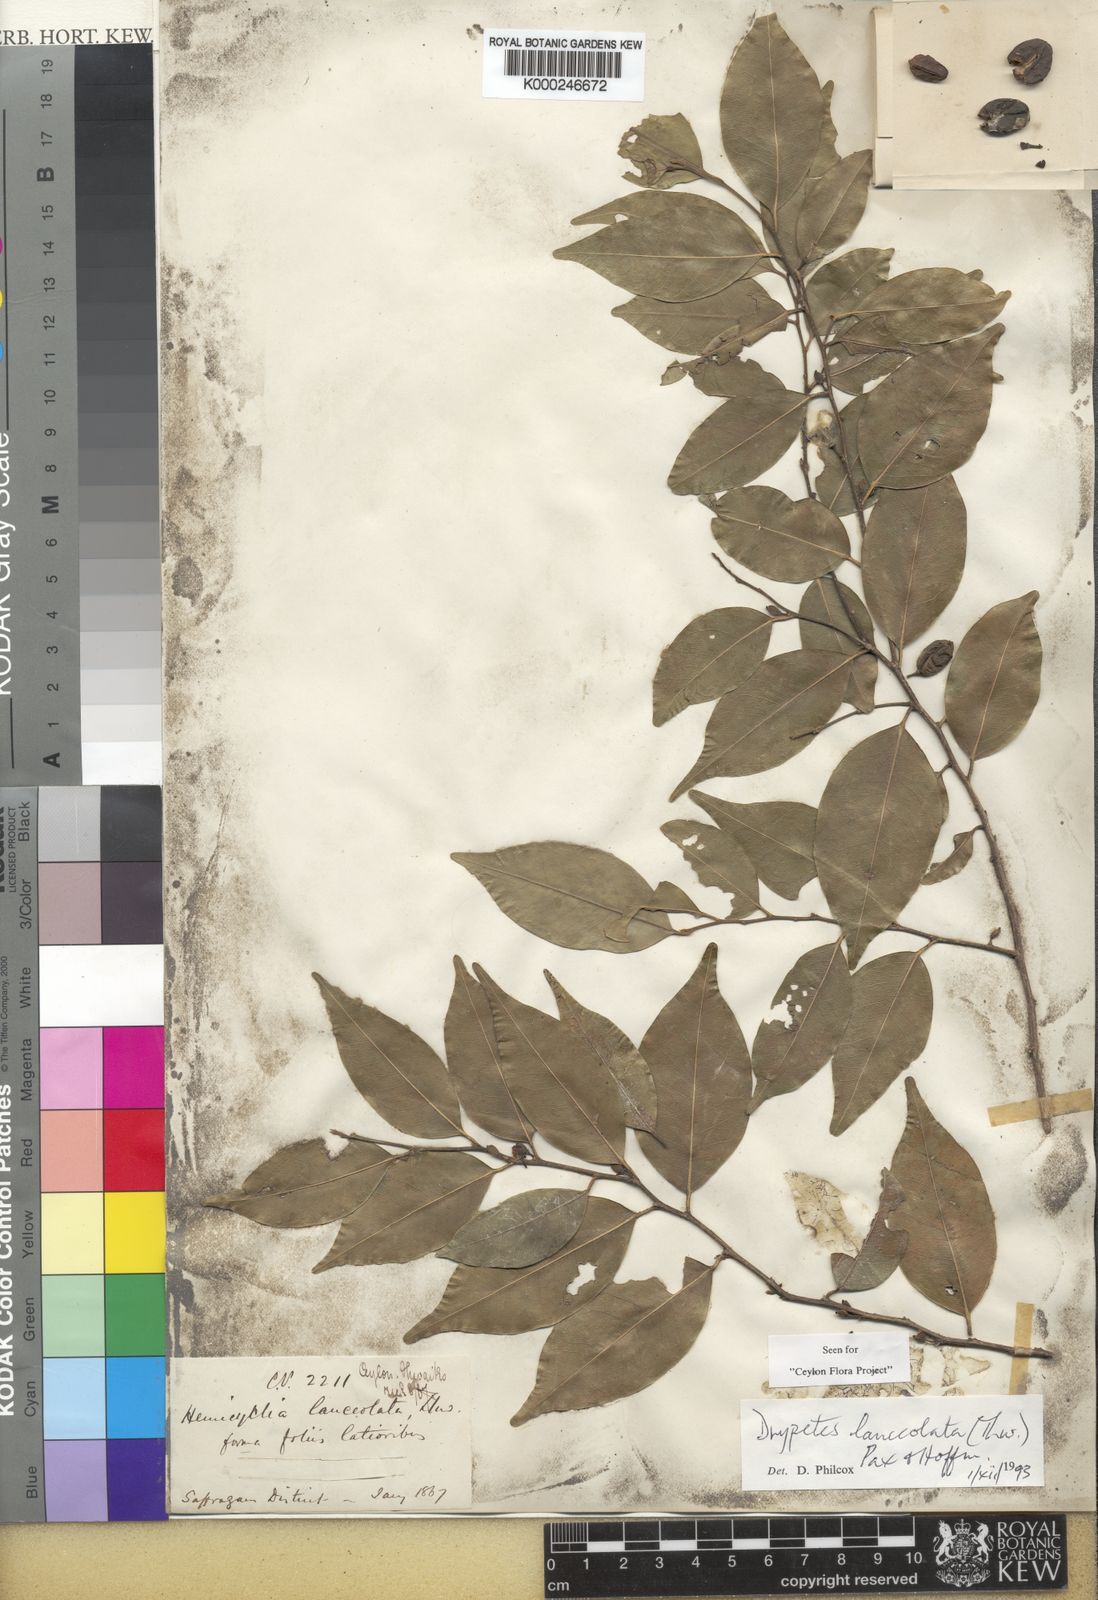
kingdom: Plantae
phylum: Tracheophyta
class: Magnoliopsida
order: Malpighiales
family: Putranjivaceae
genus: Drypetes
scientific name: Drypetes sumatrana
